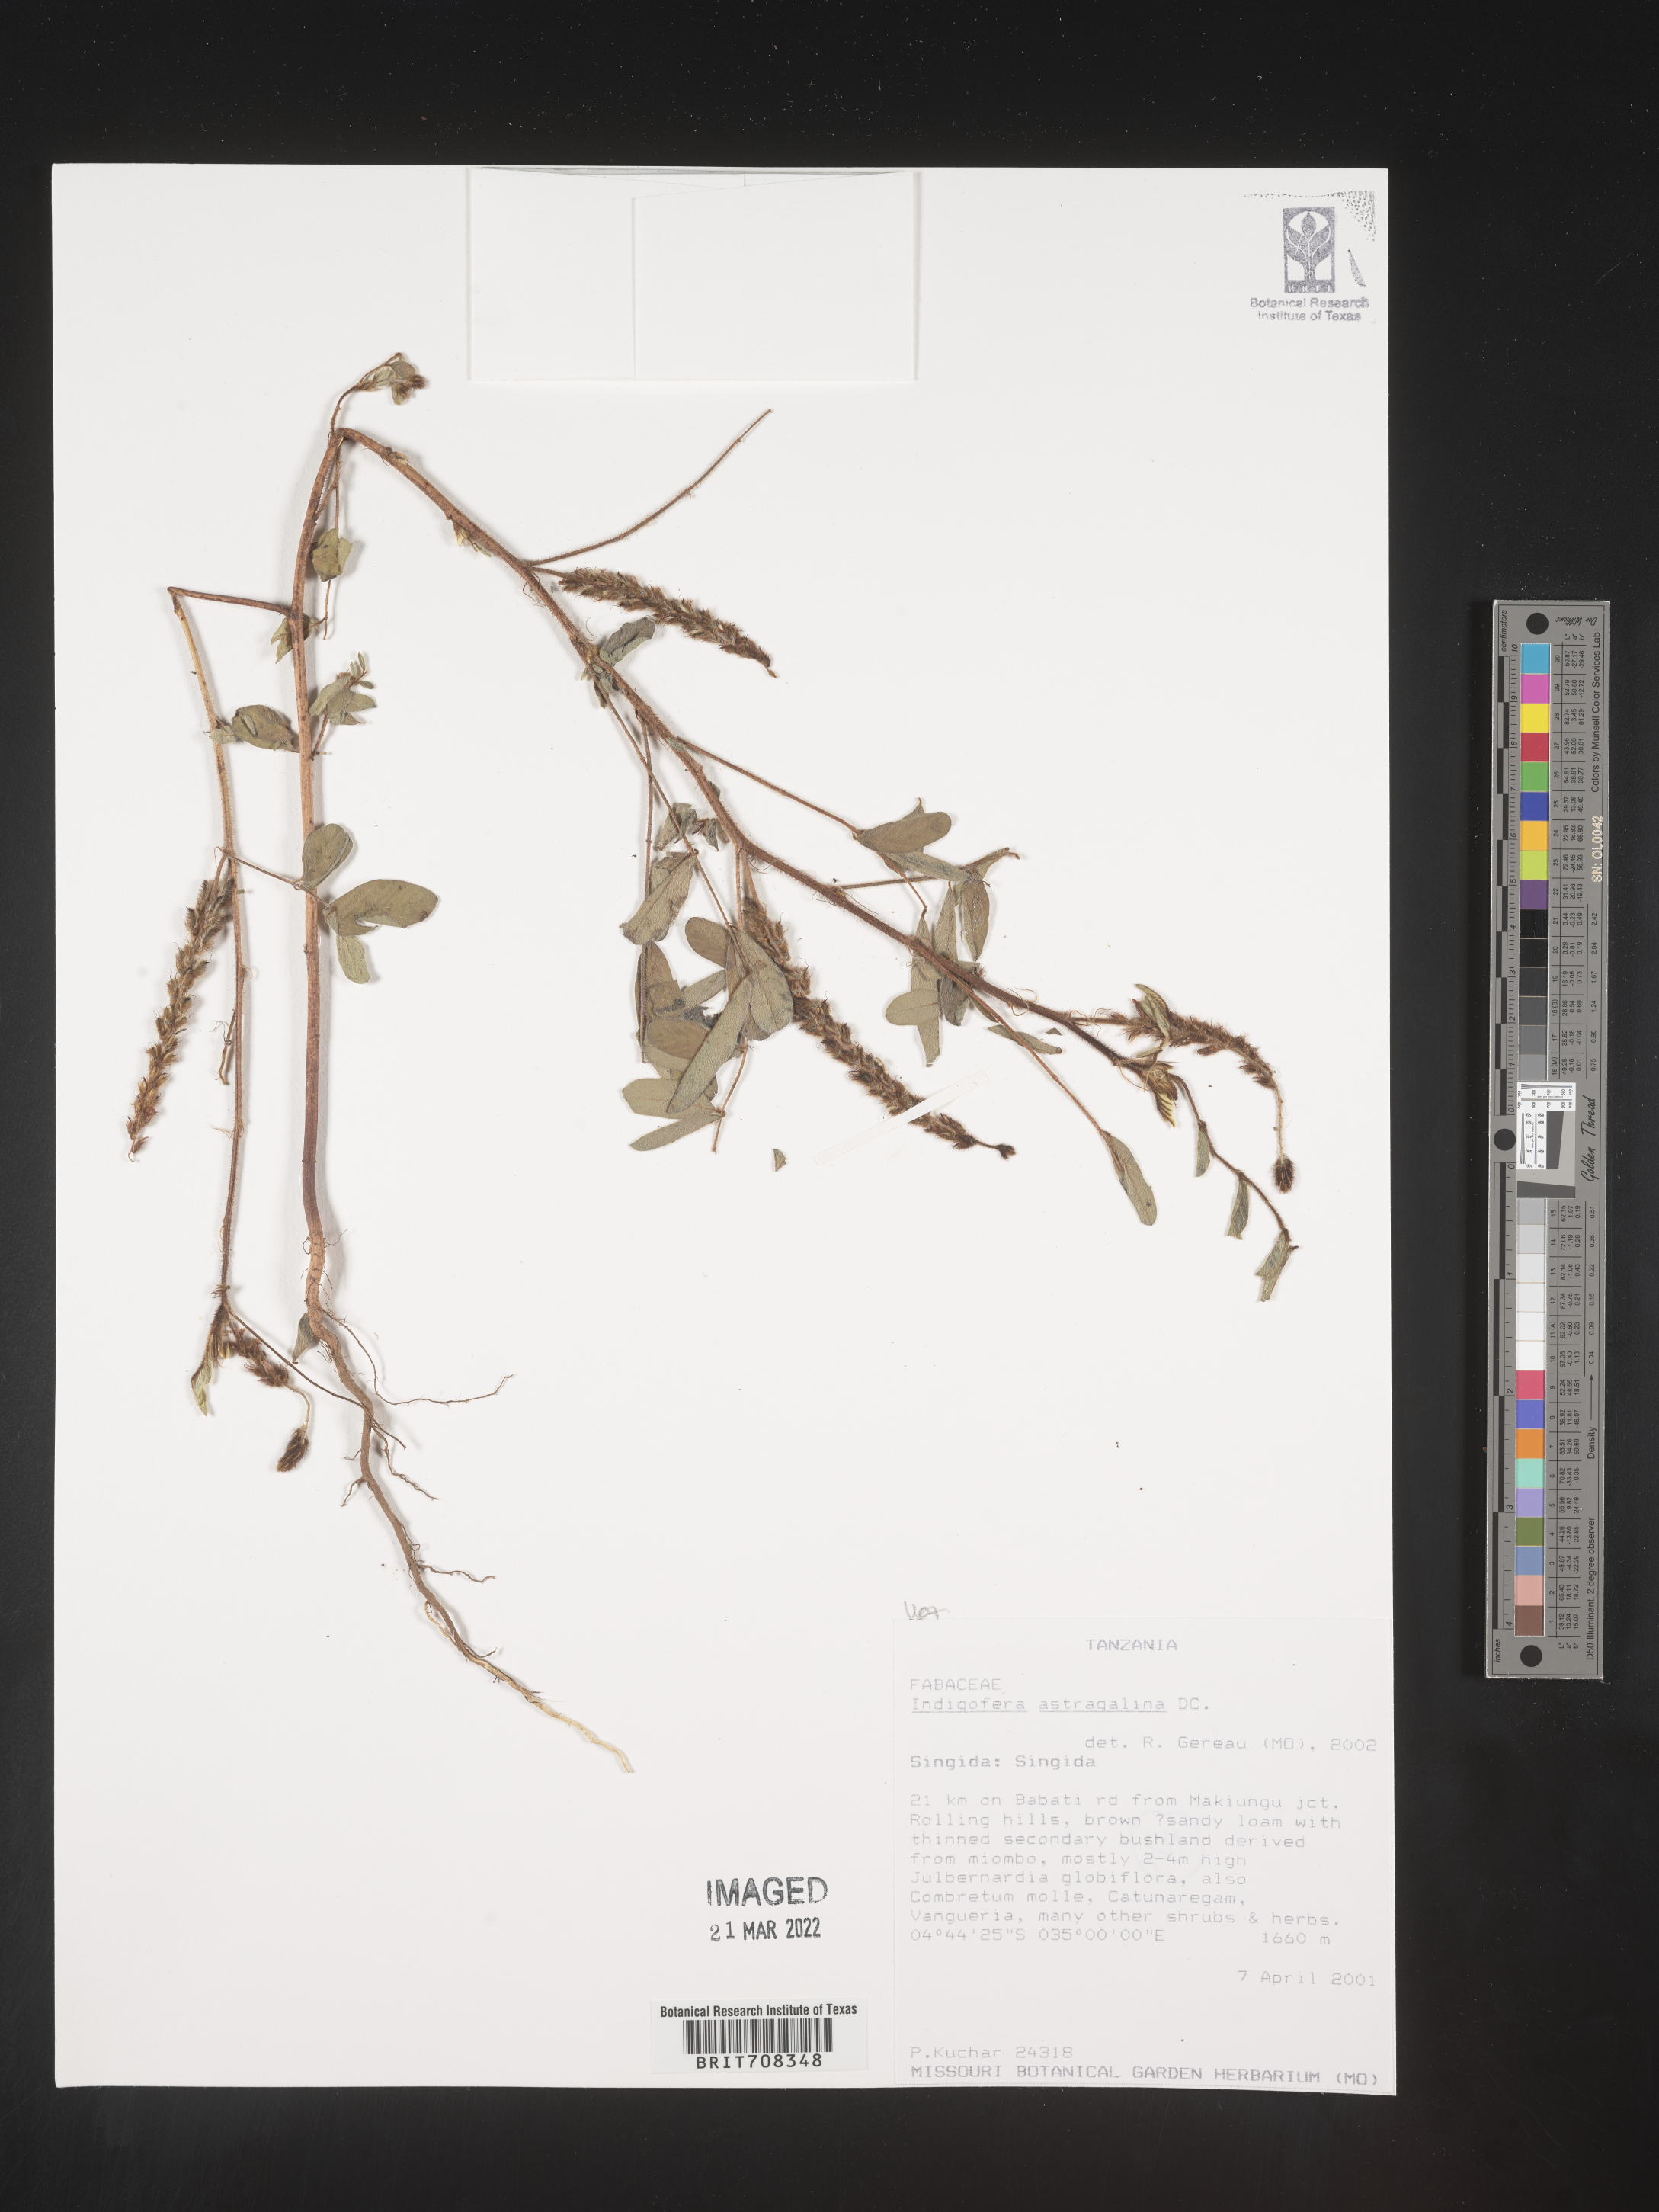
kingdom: Plantae
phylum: Tracheophyta
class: Magnoliopsida
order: Fabales
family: Fabaceae
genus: Indigofera
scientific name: Indigofera
